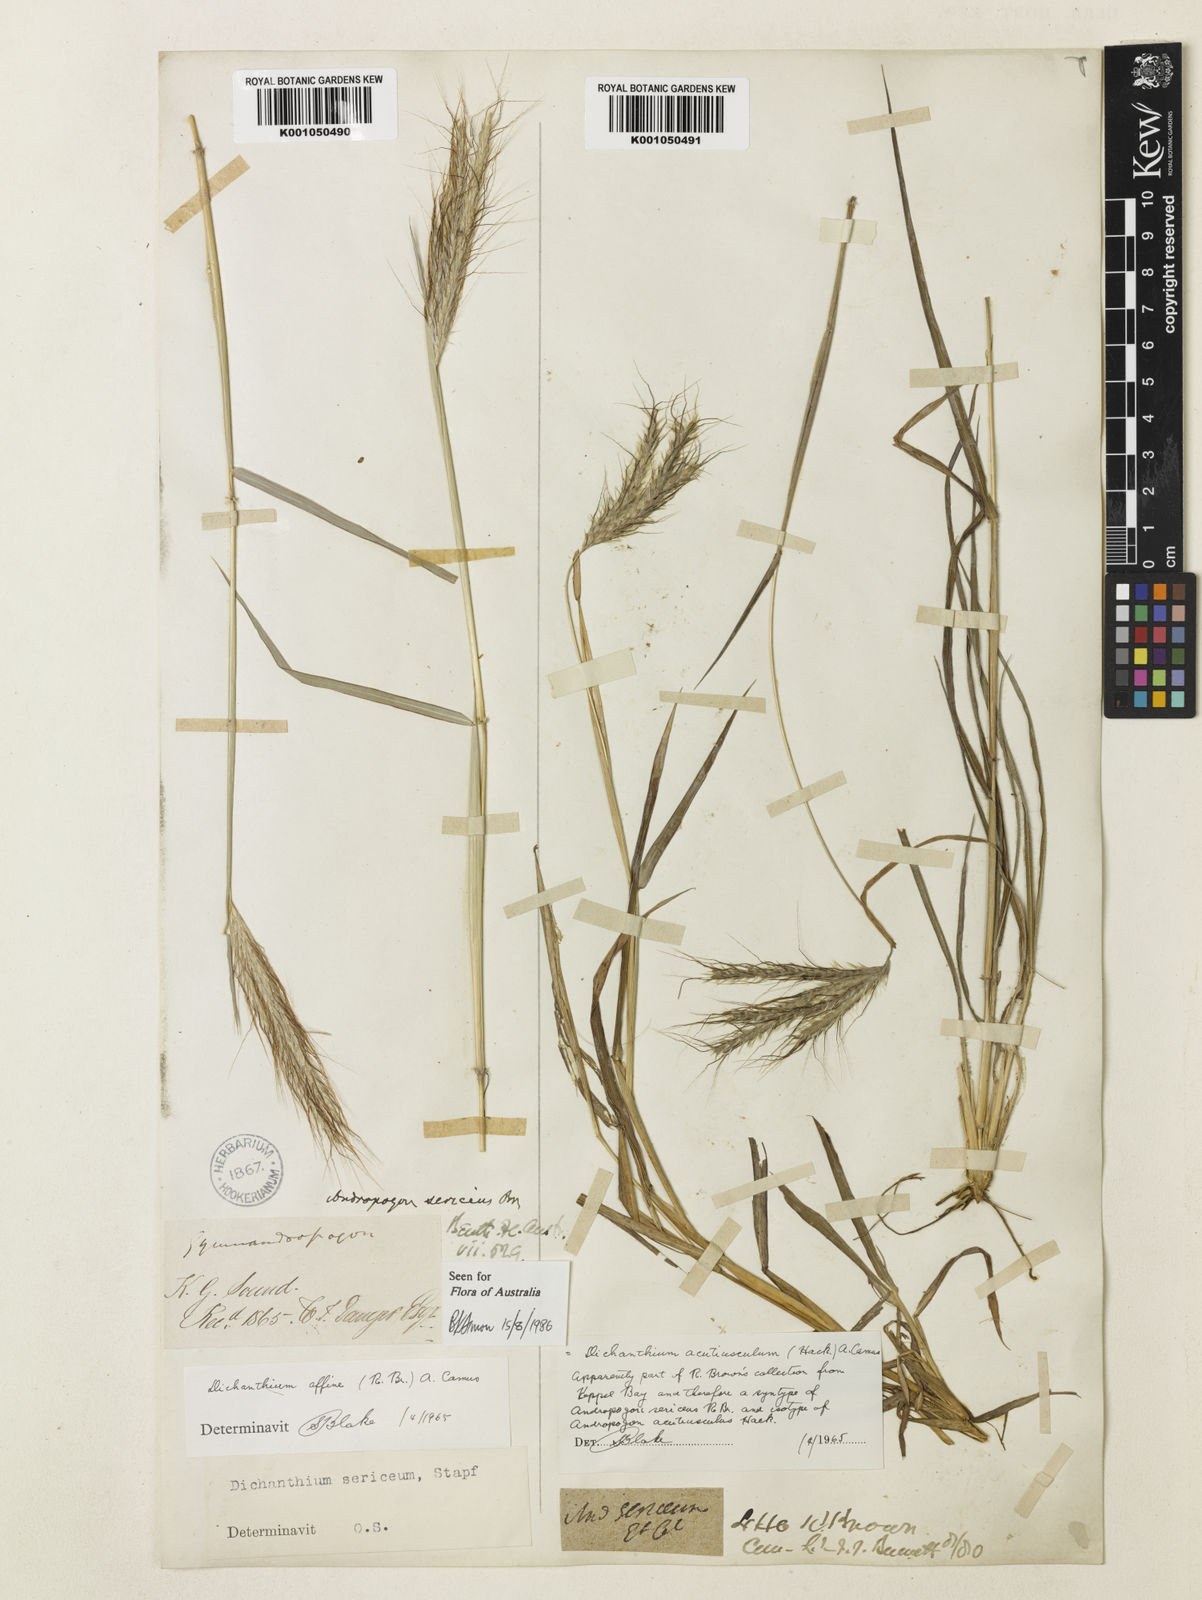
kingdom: Plantae
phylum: Tracheophyta
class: Liliopsida
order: Poales
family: Poaceae
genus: Dichanthium
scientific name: Dichanthium sericeum
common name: Silky bluestem
